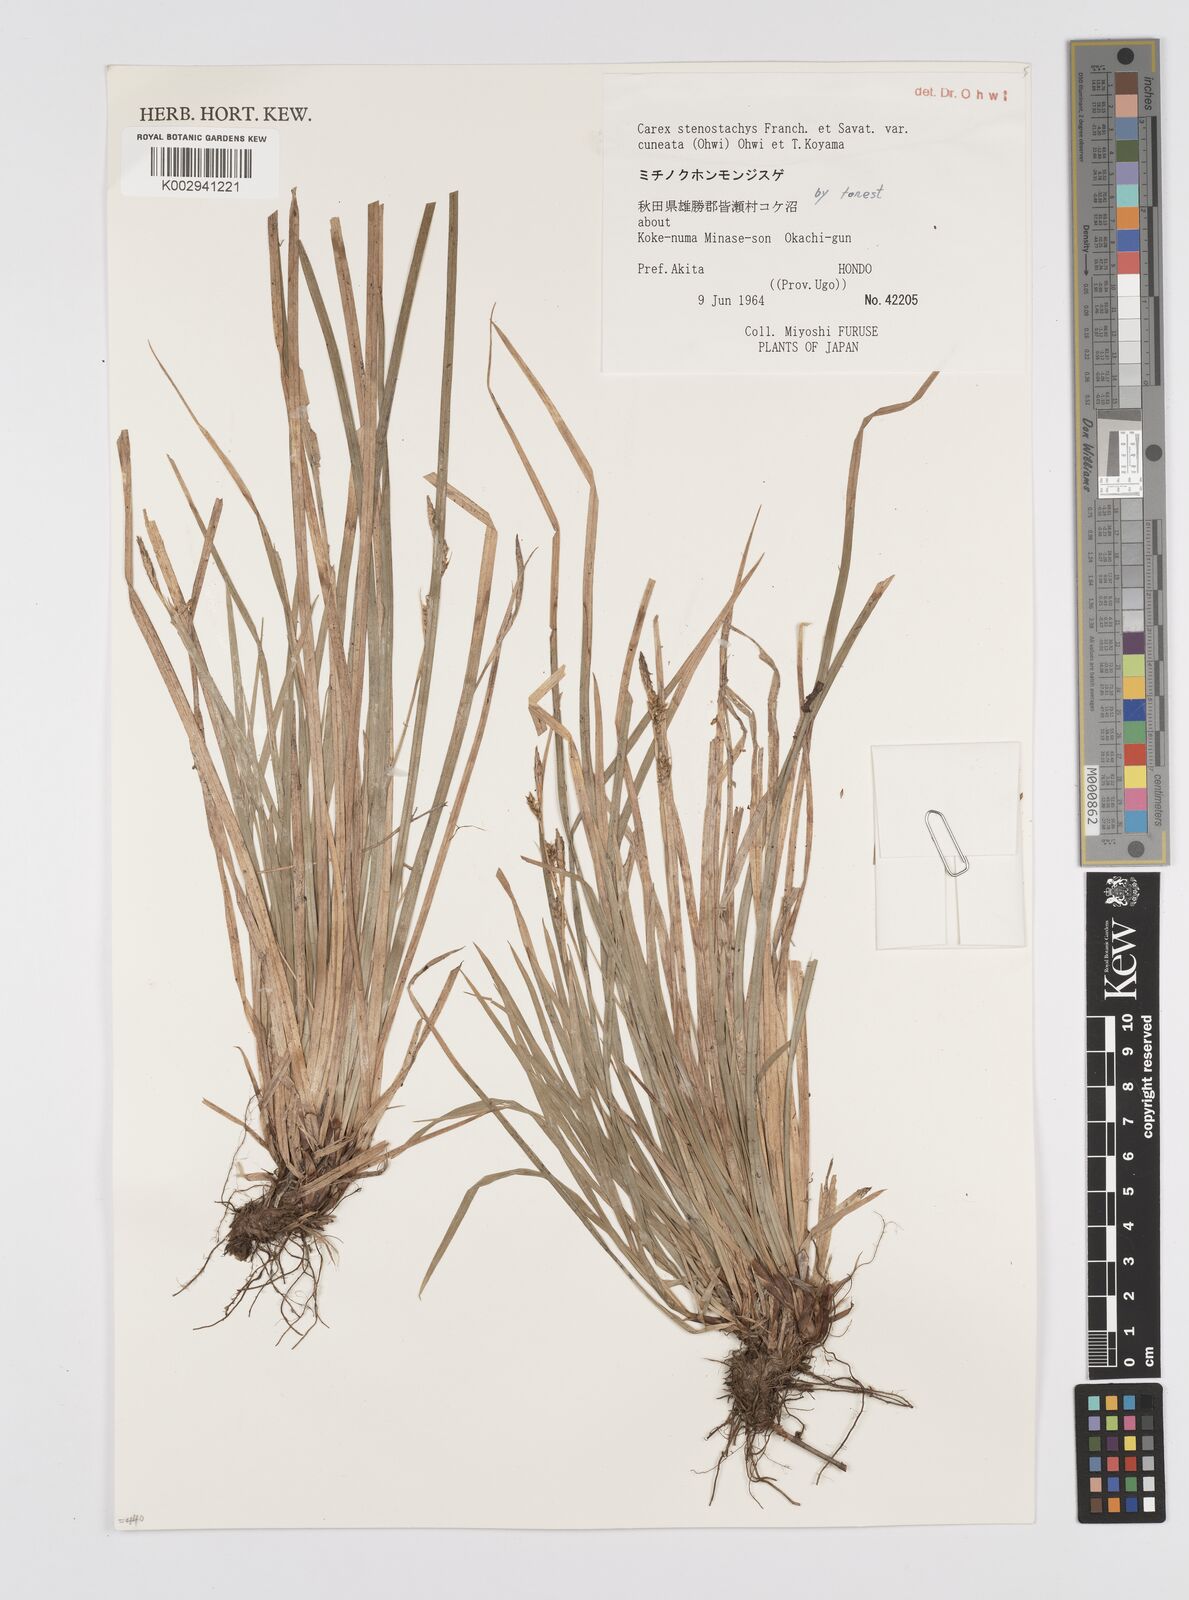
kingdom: Plantae
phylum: Tracheophyta
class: Liliopsida
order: Poales
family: Cyperaceae
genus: Carex
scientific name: Carex pisiformis
